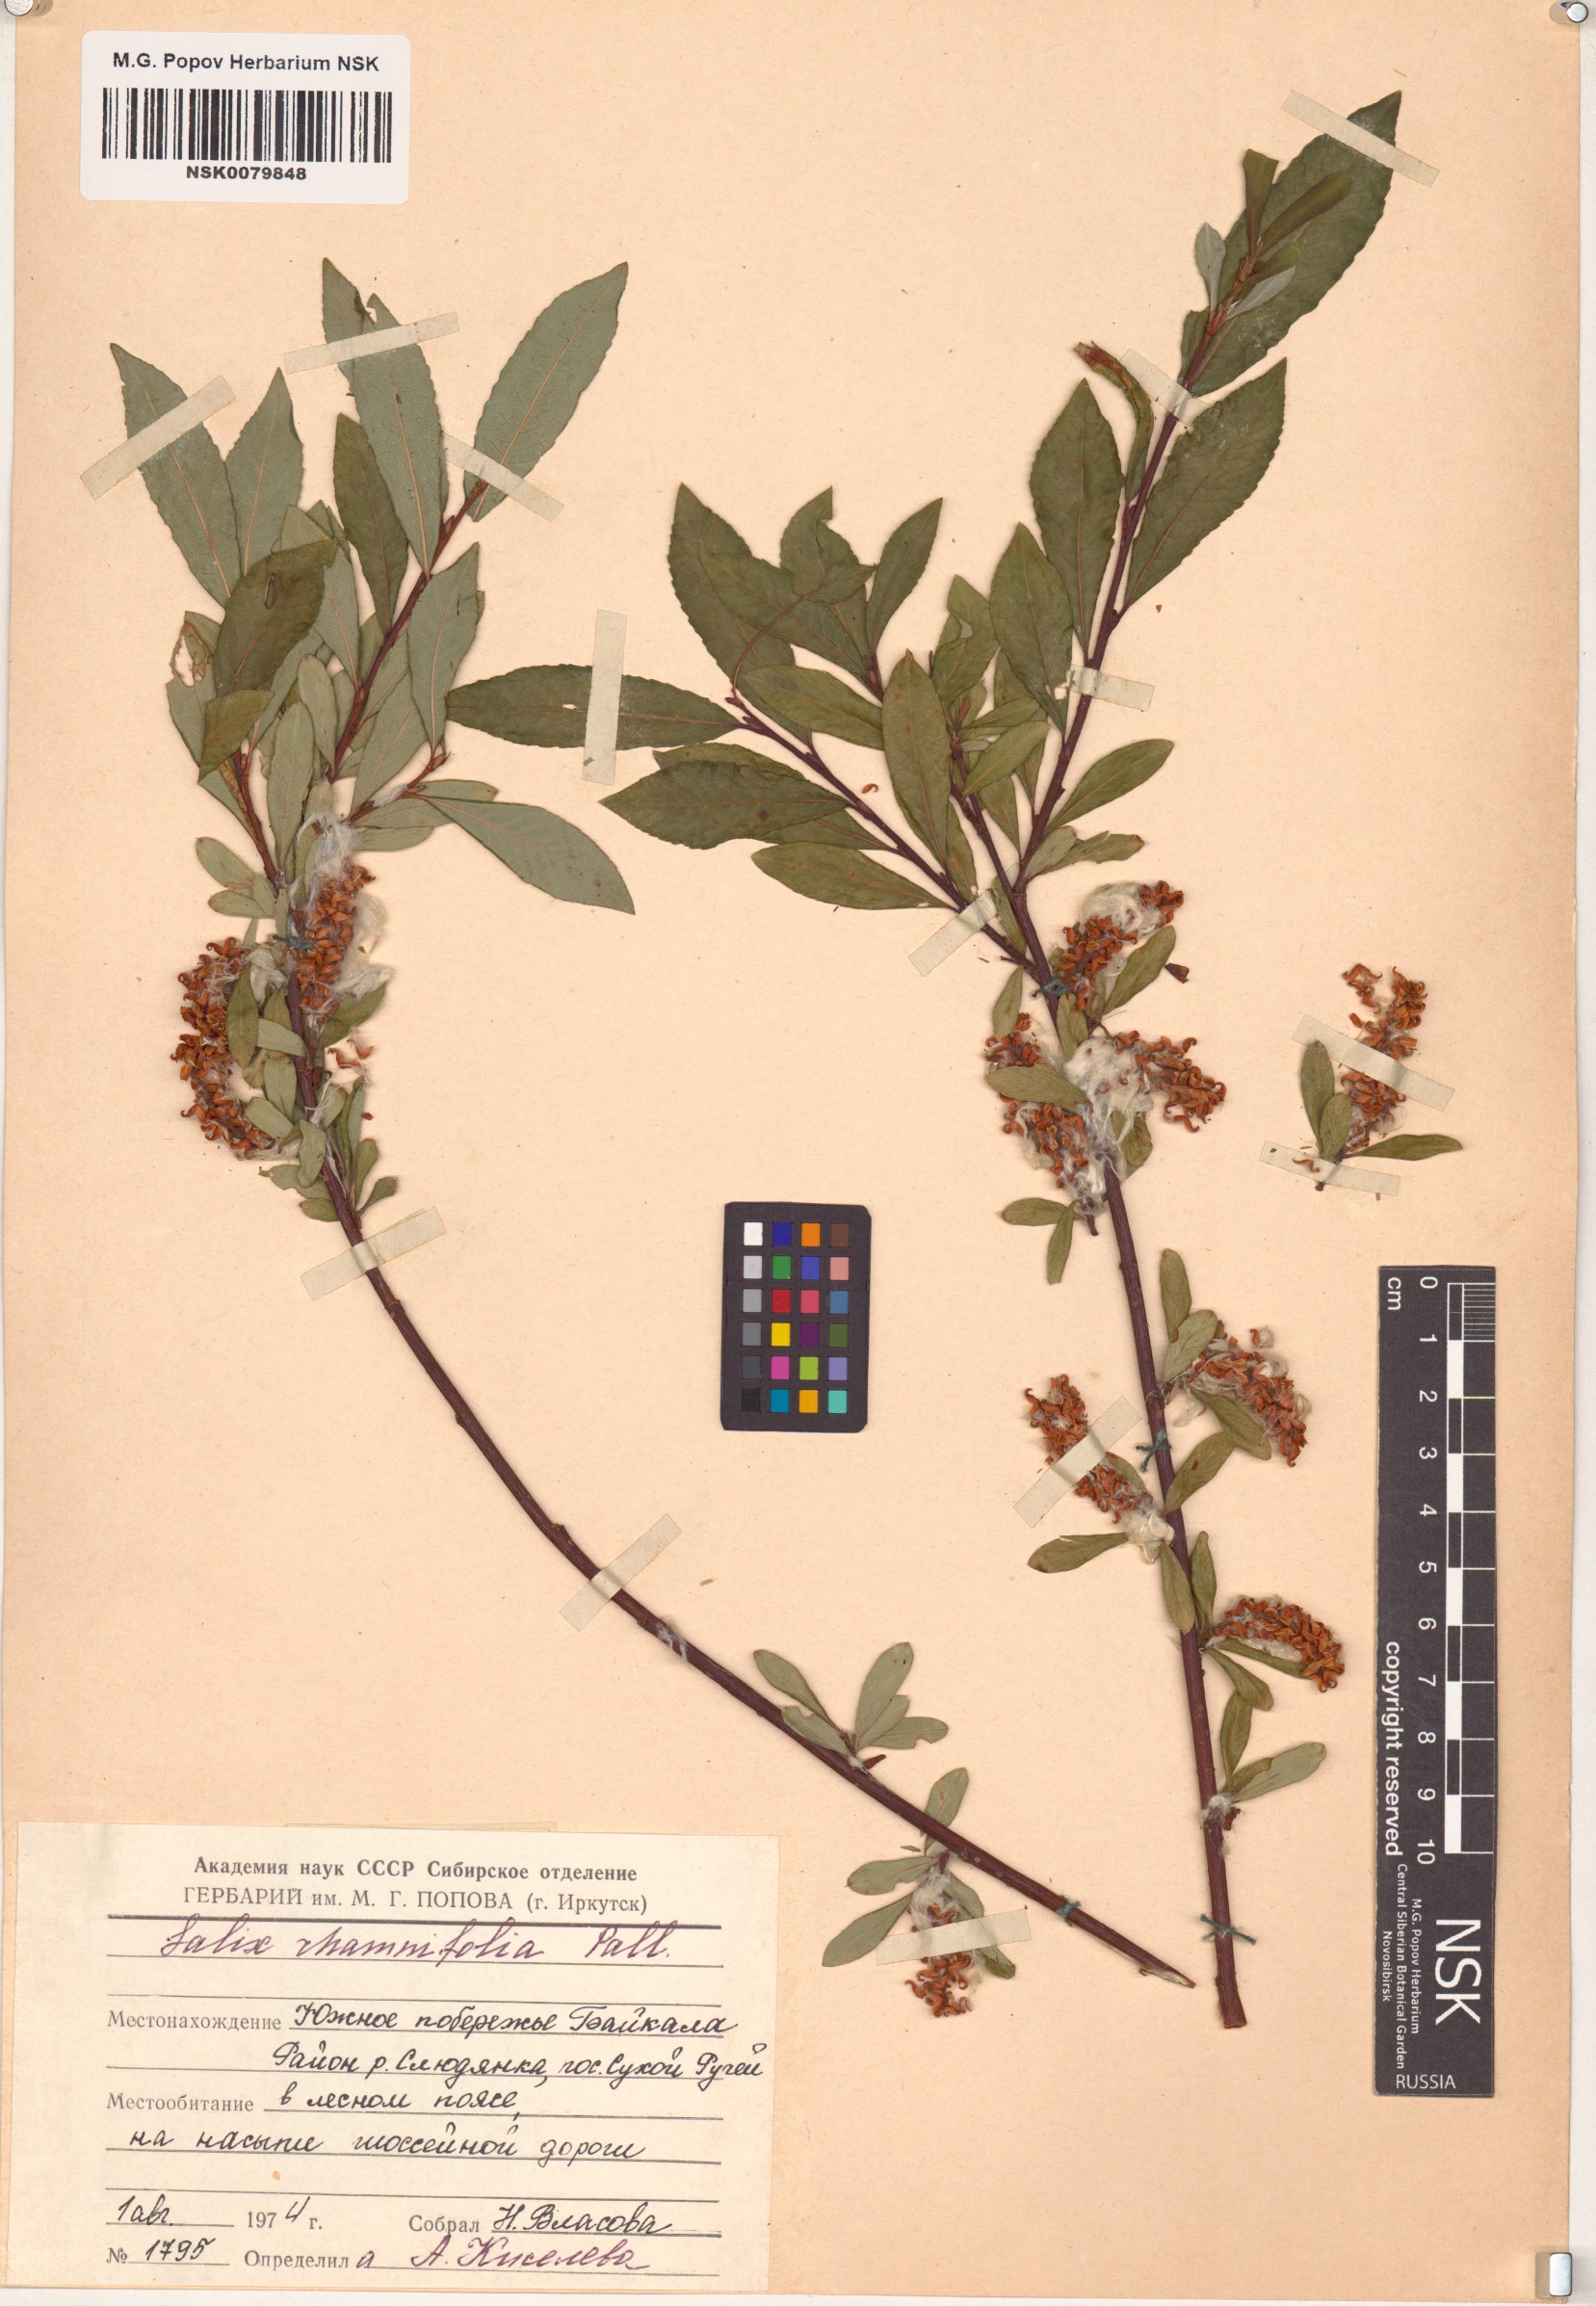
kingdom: Plantae
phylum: Tracheophyta
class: Magnoliopsida
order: Malpighiales
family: Salicaceae
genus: Salix
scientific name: Salix rhamnifolia
